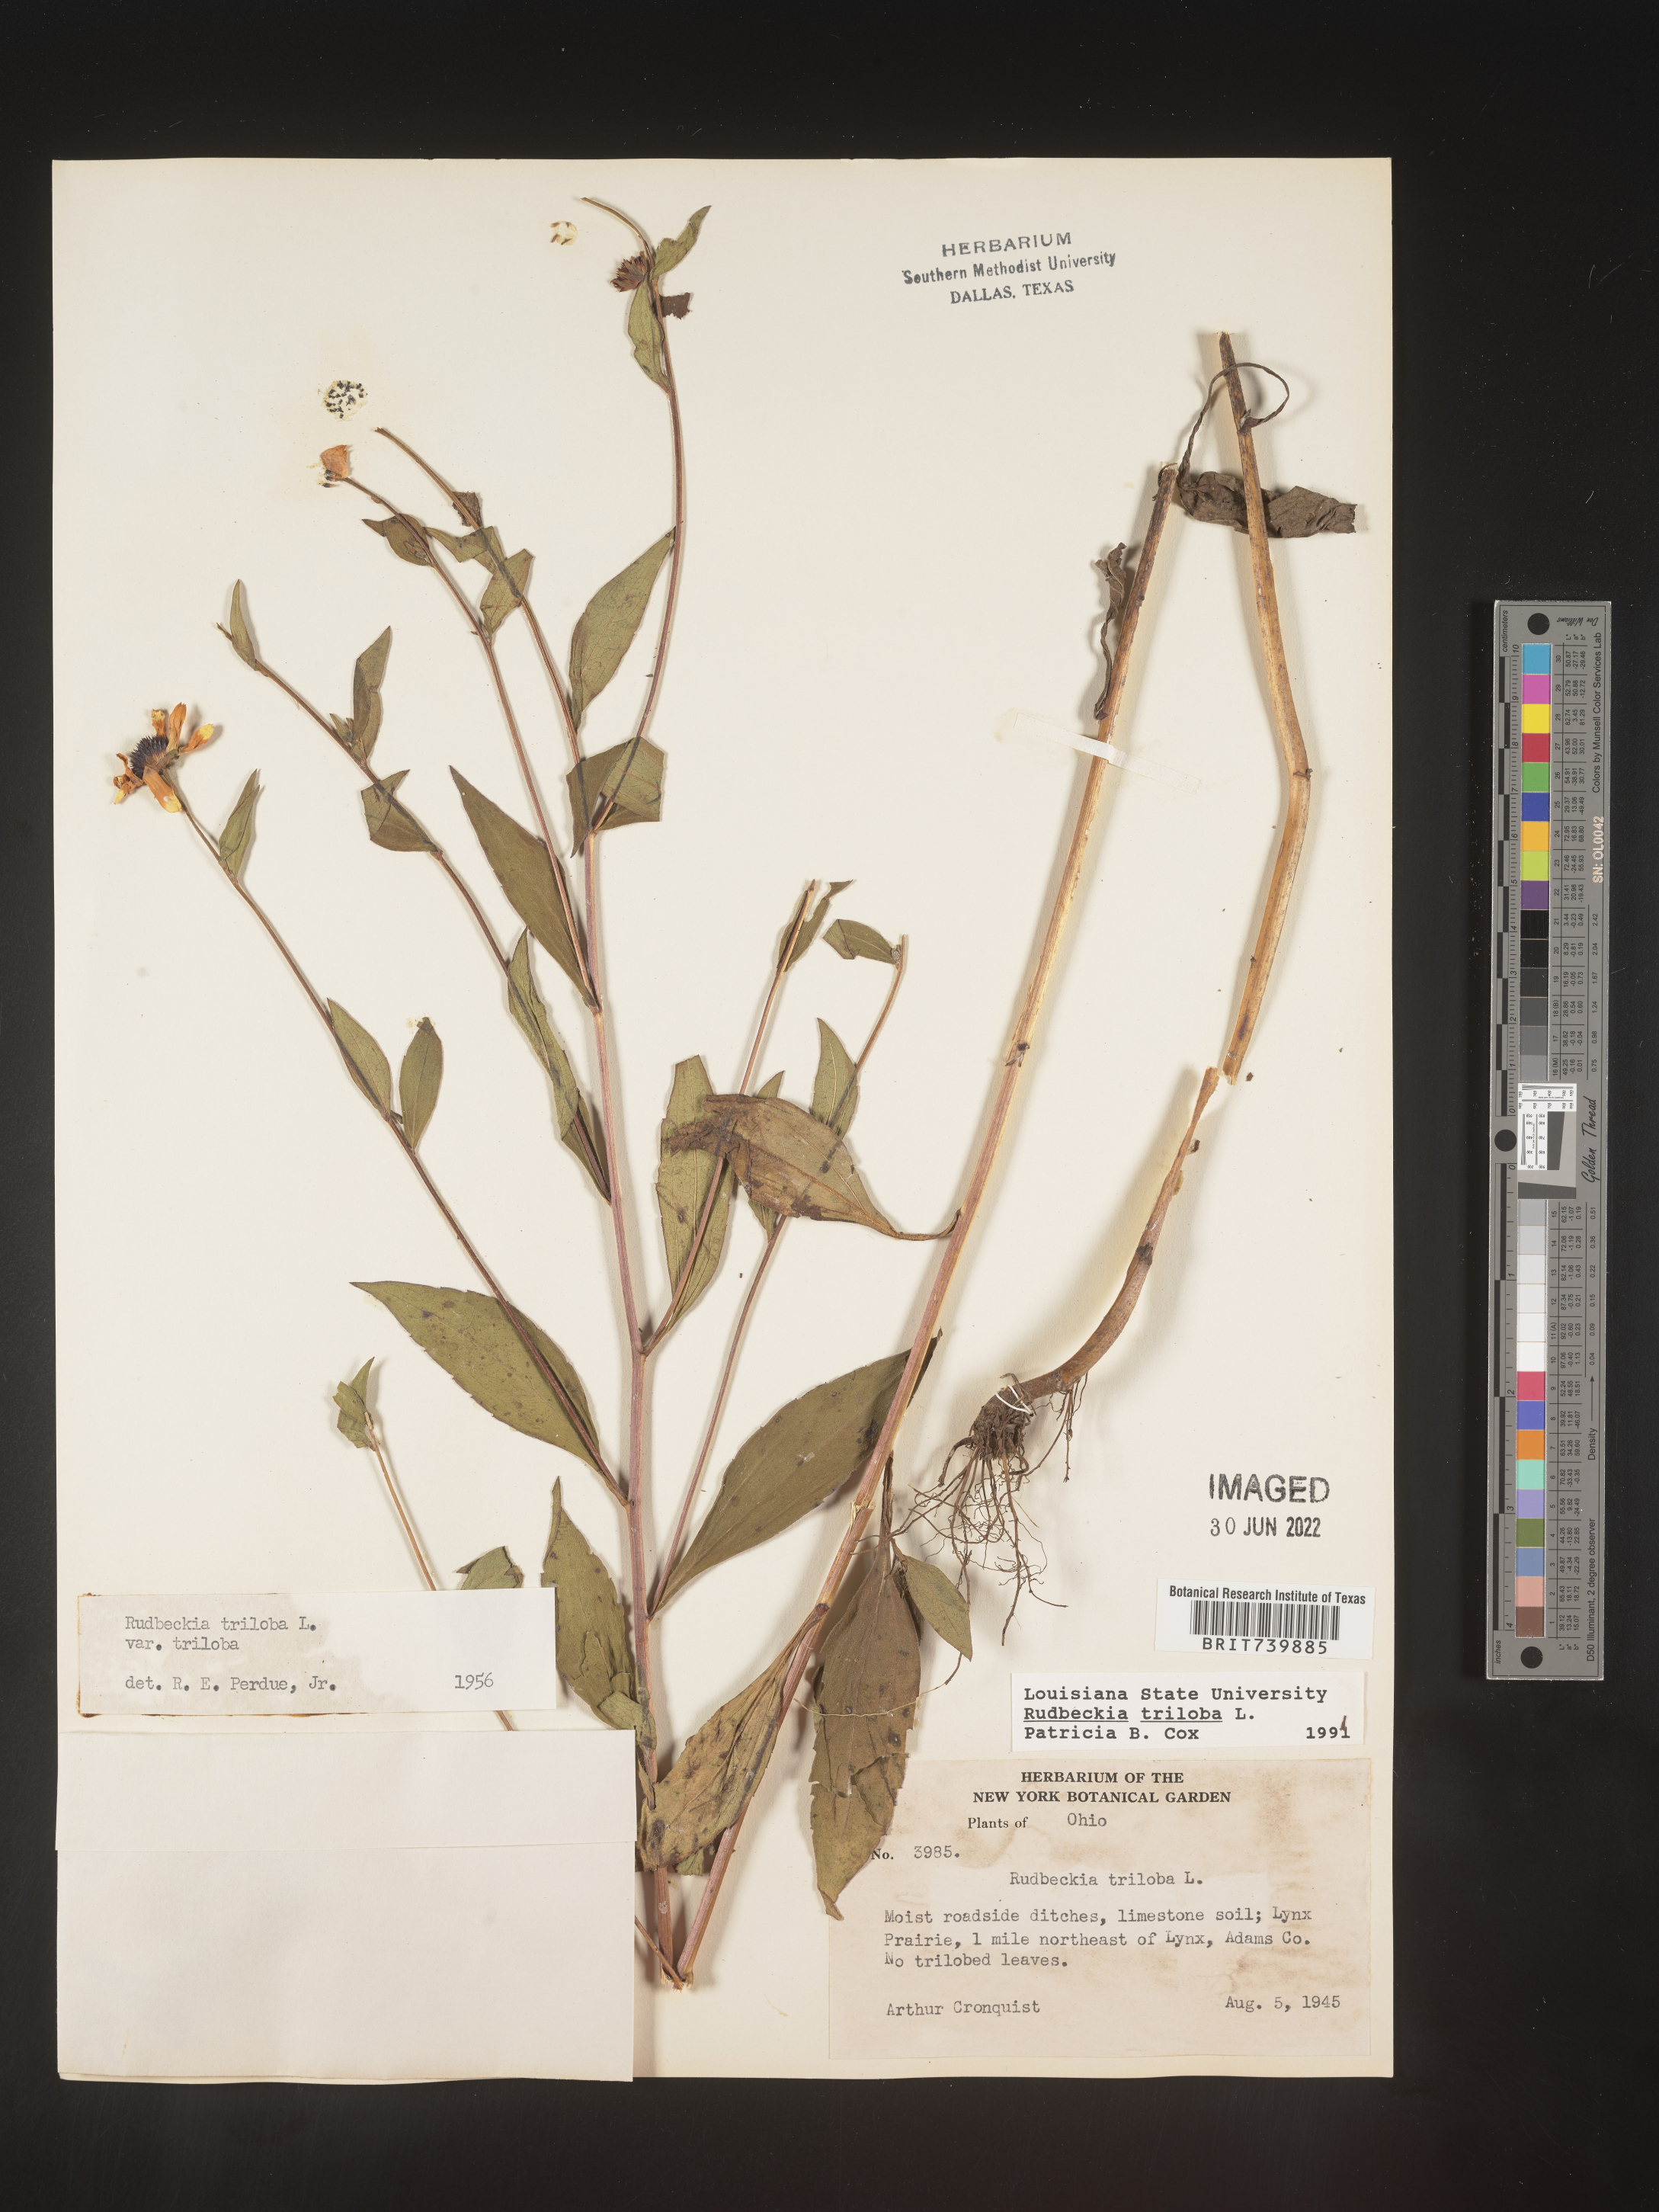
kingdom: Plantae
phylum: Tracheophyta
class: Magnoliopsida
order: Asterales
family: Asteraceae
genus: Rudbeckia
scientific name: Rudbeckia triloba
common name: Thin-leaved coneflower
